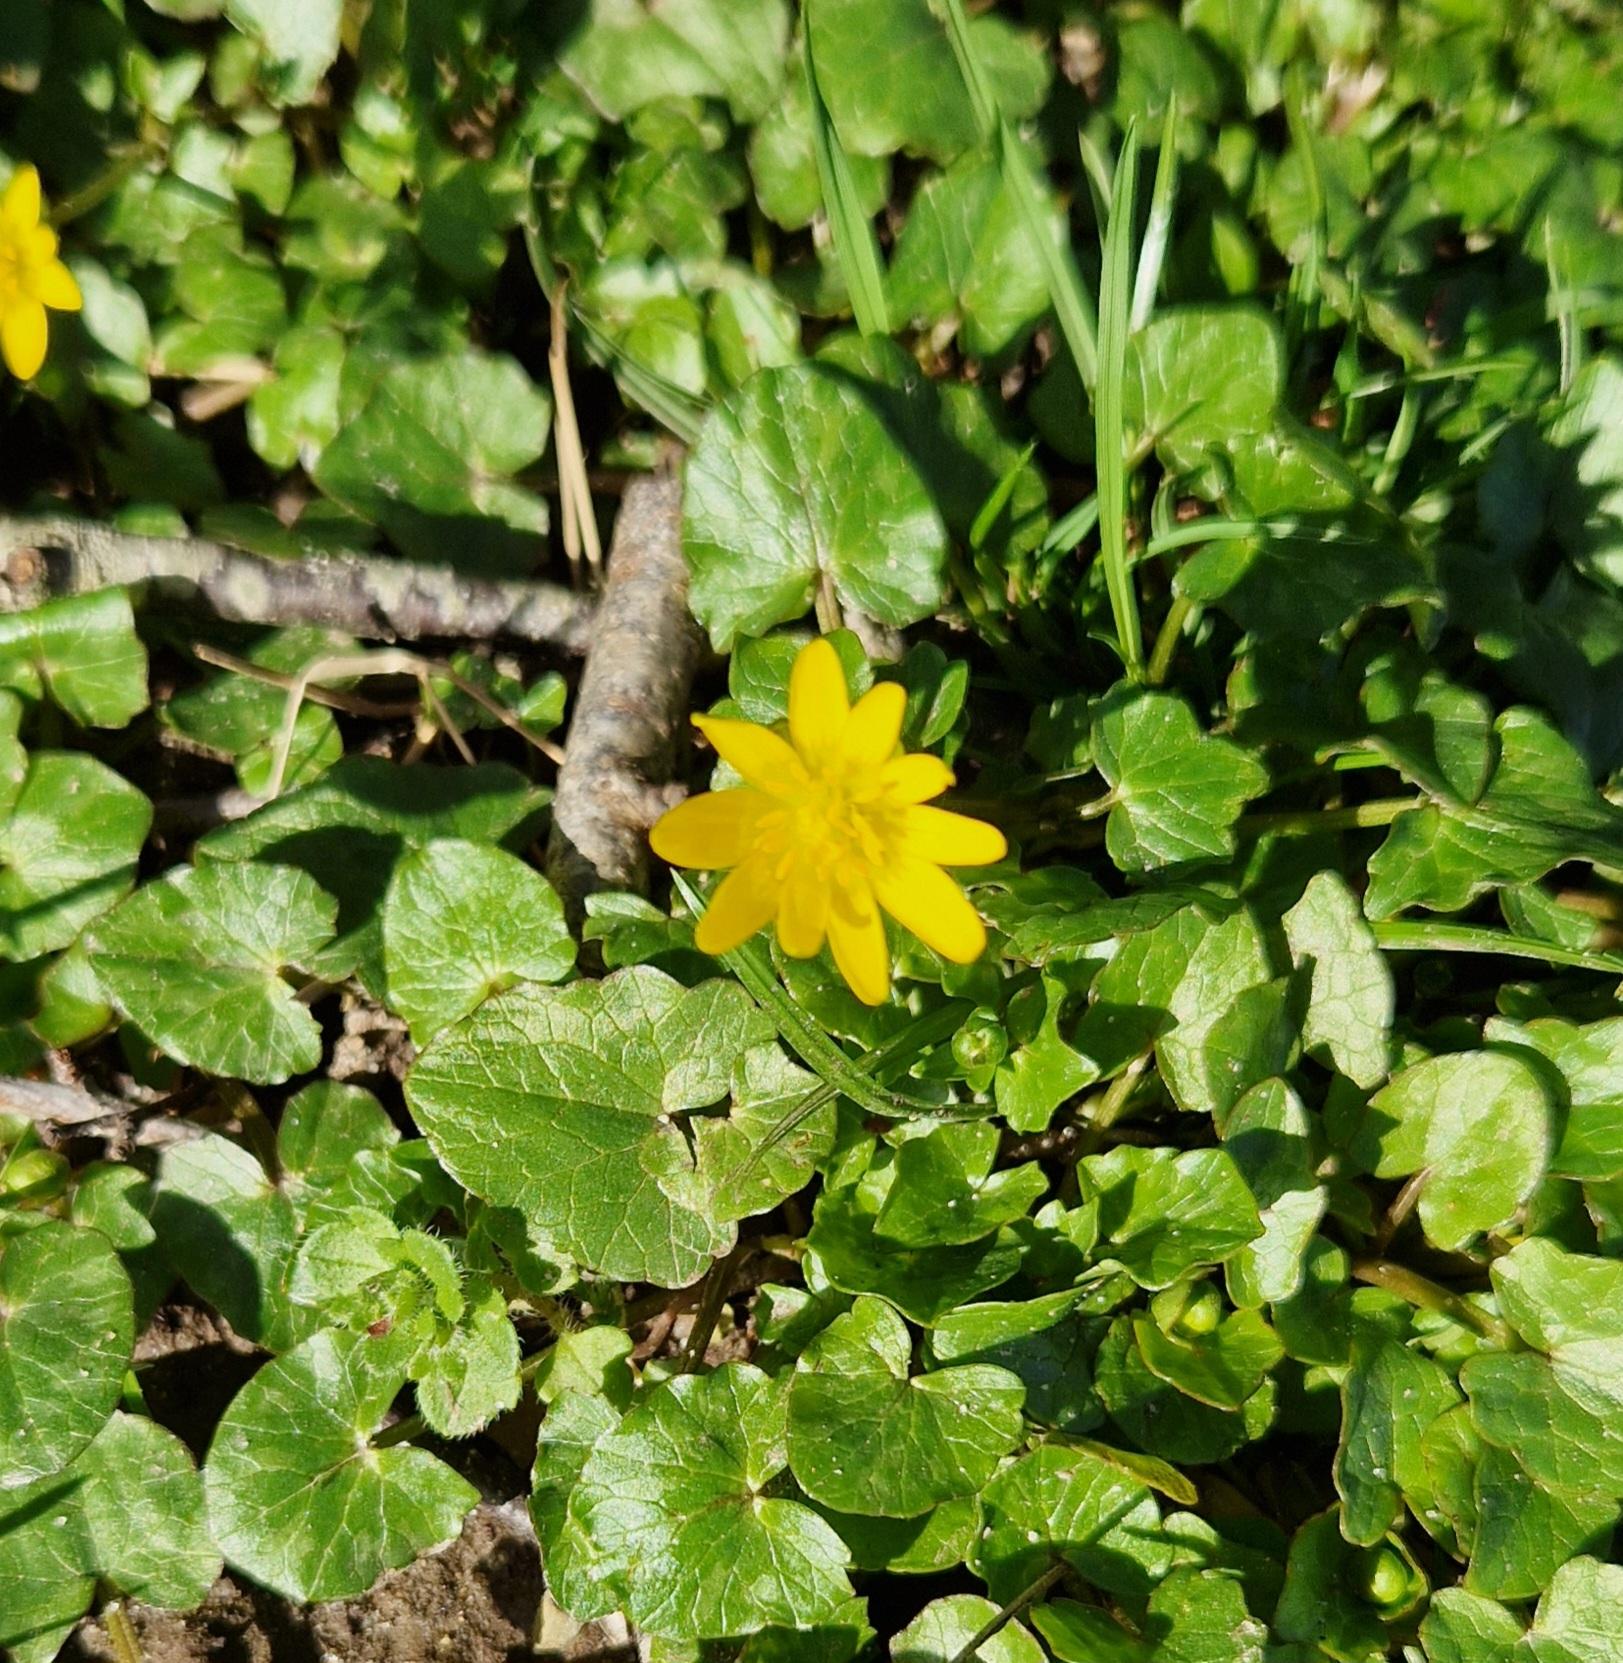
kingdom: Plantae
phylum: Tracheophyta
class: Magnoliopsida
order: Ranunculales
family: Ranunculaceae
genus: Ficaria
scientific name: Ficaria verna
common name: Vorterod
